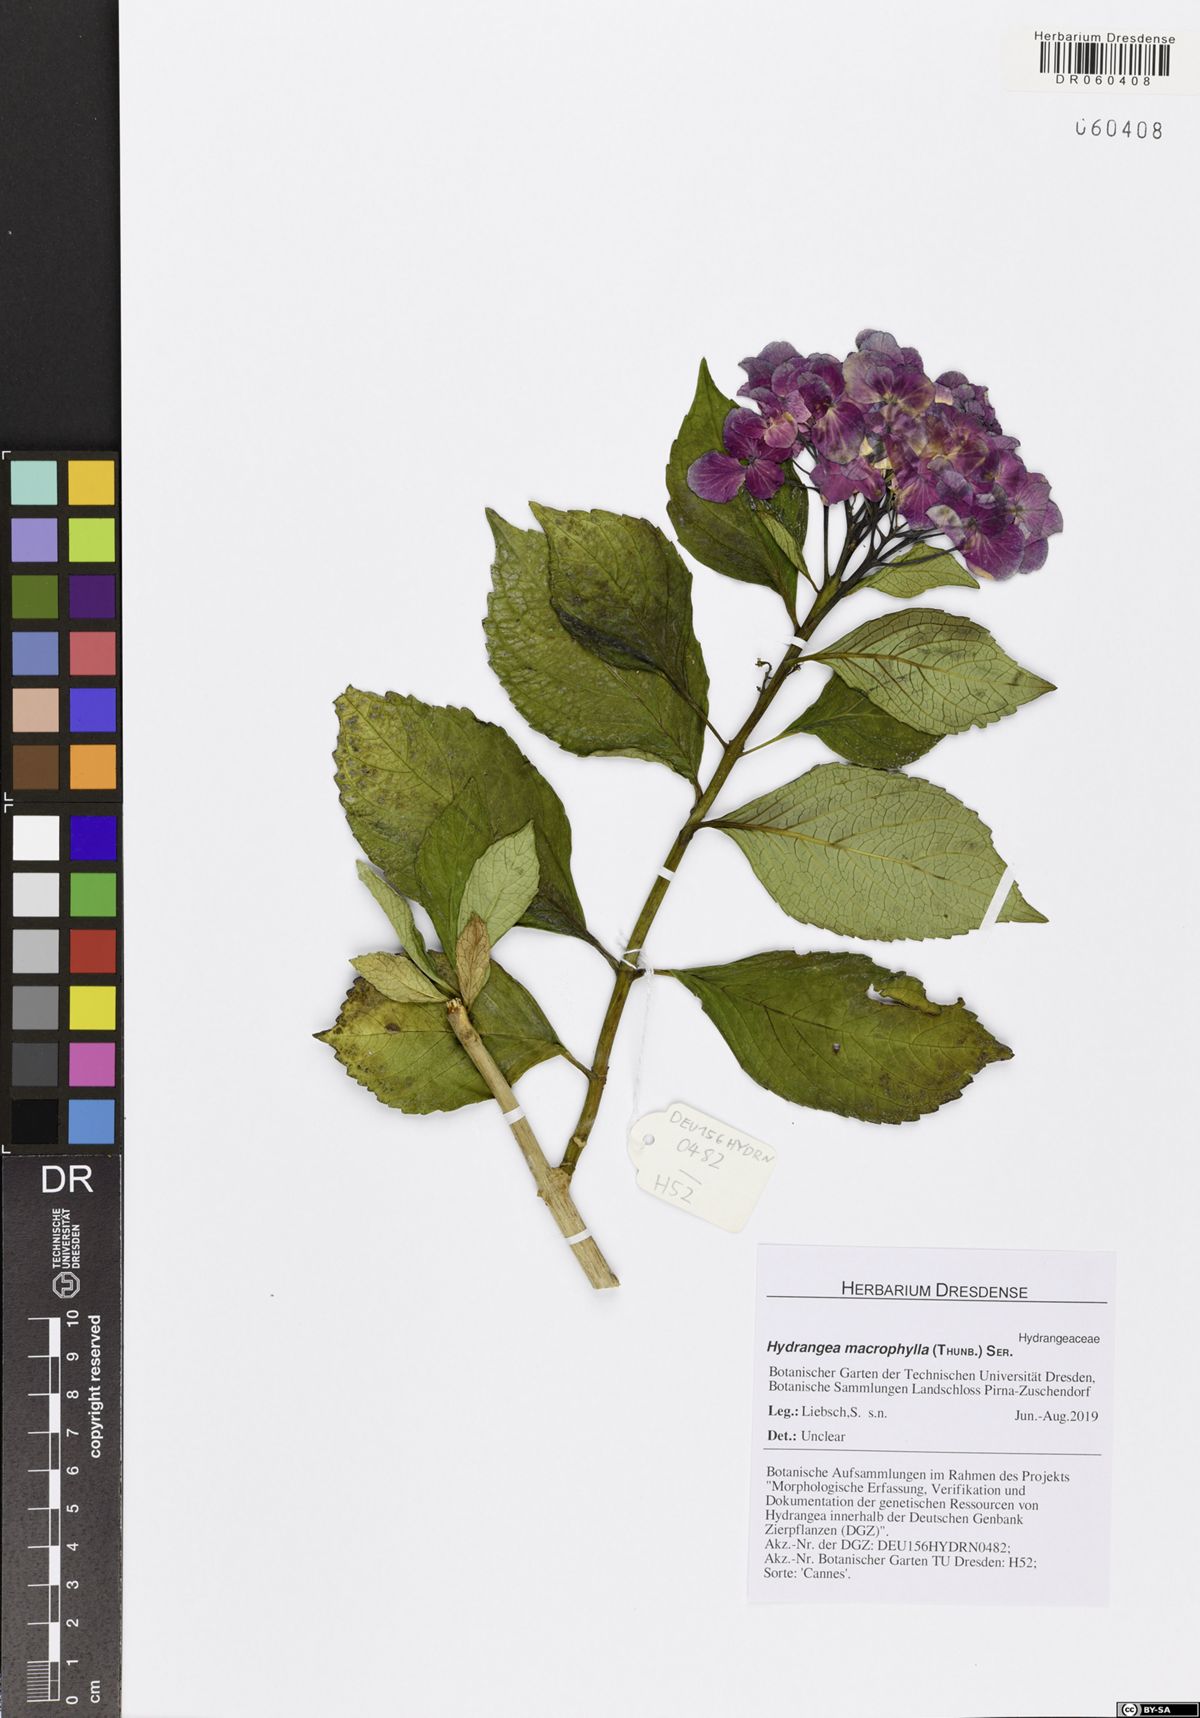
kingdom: Plantae
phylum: Tracheophyta
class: Magnoliopsida
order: Cornales
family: Hydrangeaceae
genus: Hydrangea
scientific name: Hydrangea macrophylla
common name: Hydrangea
